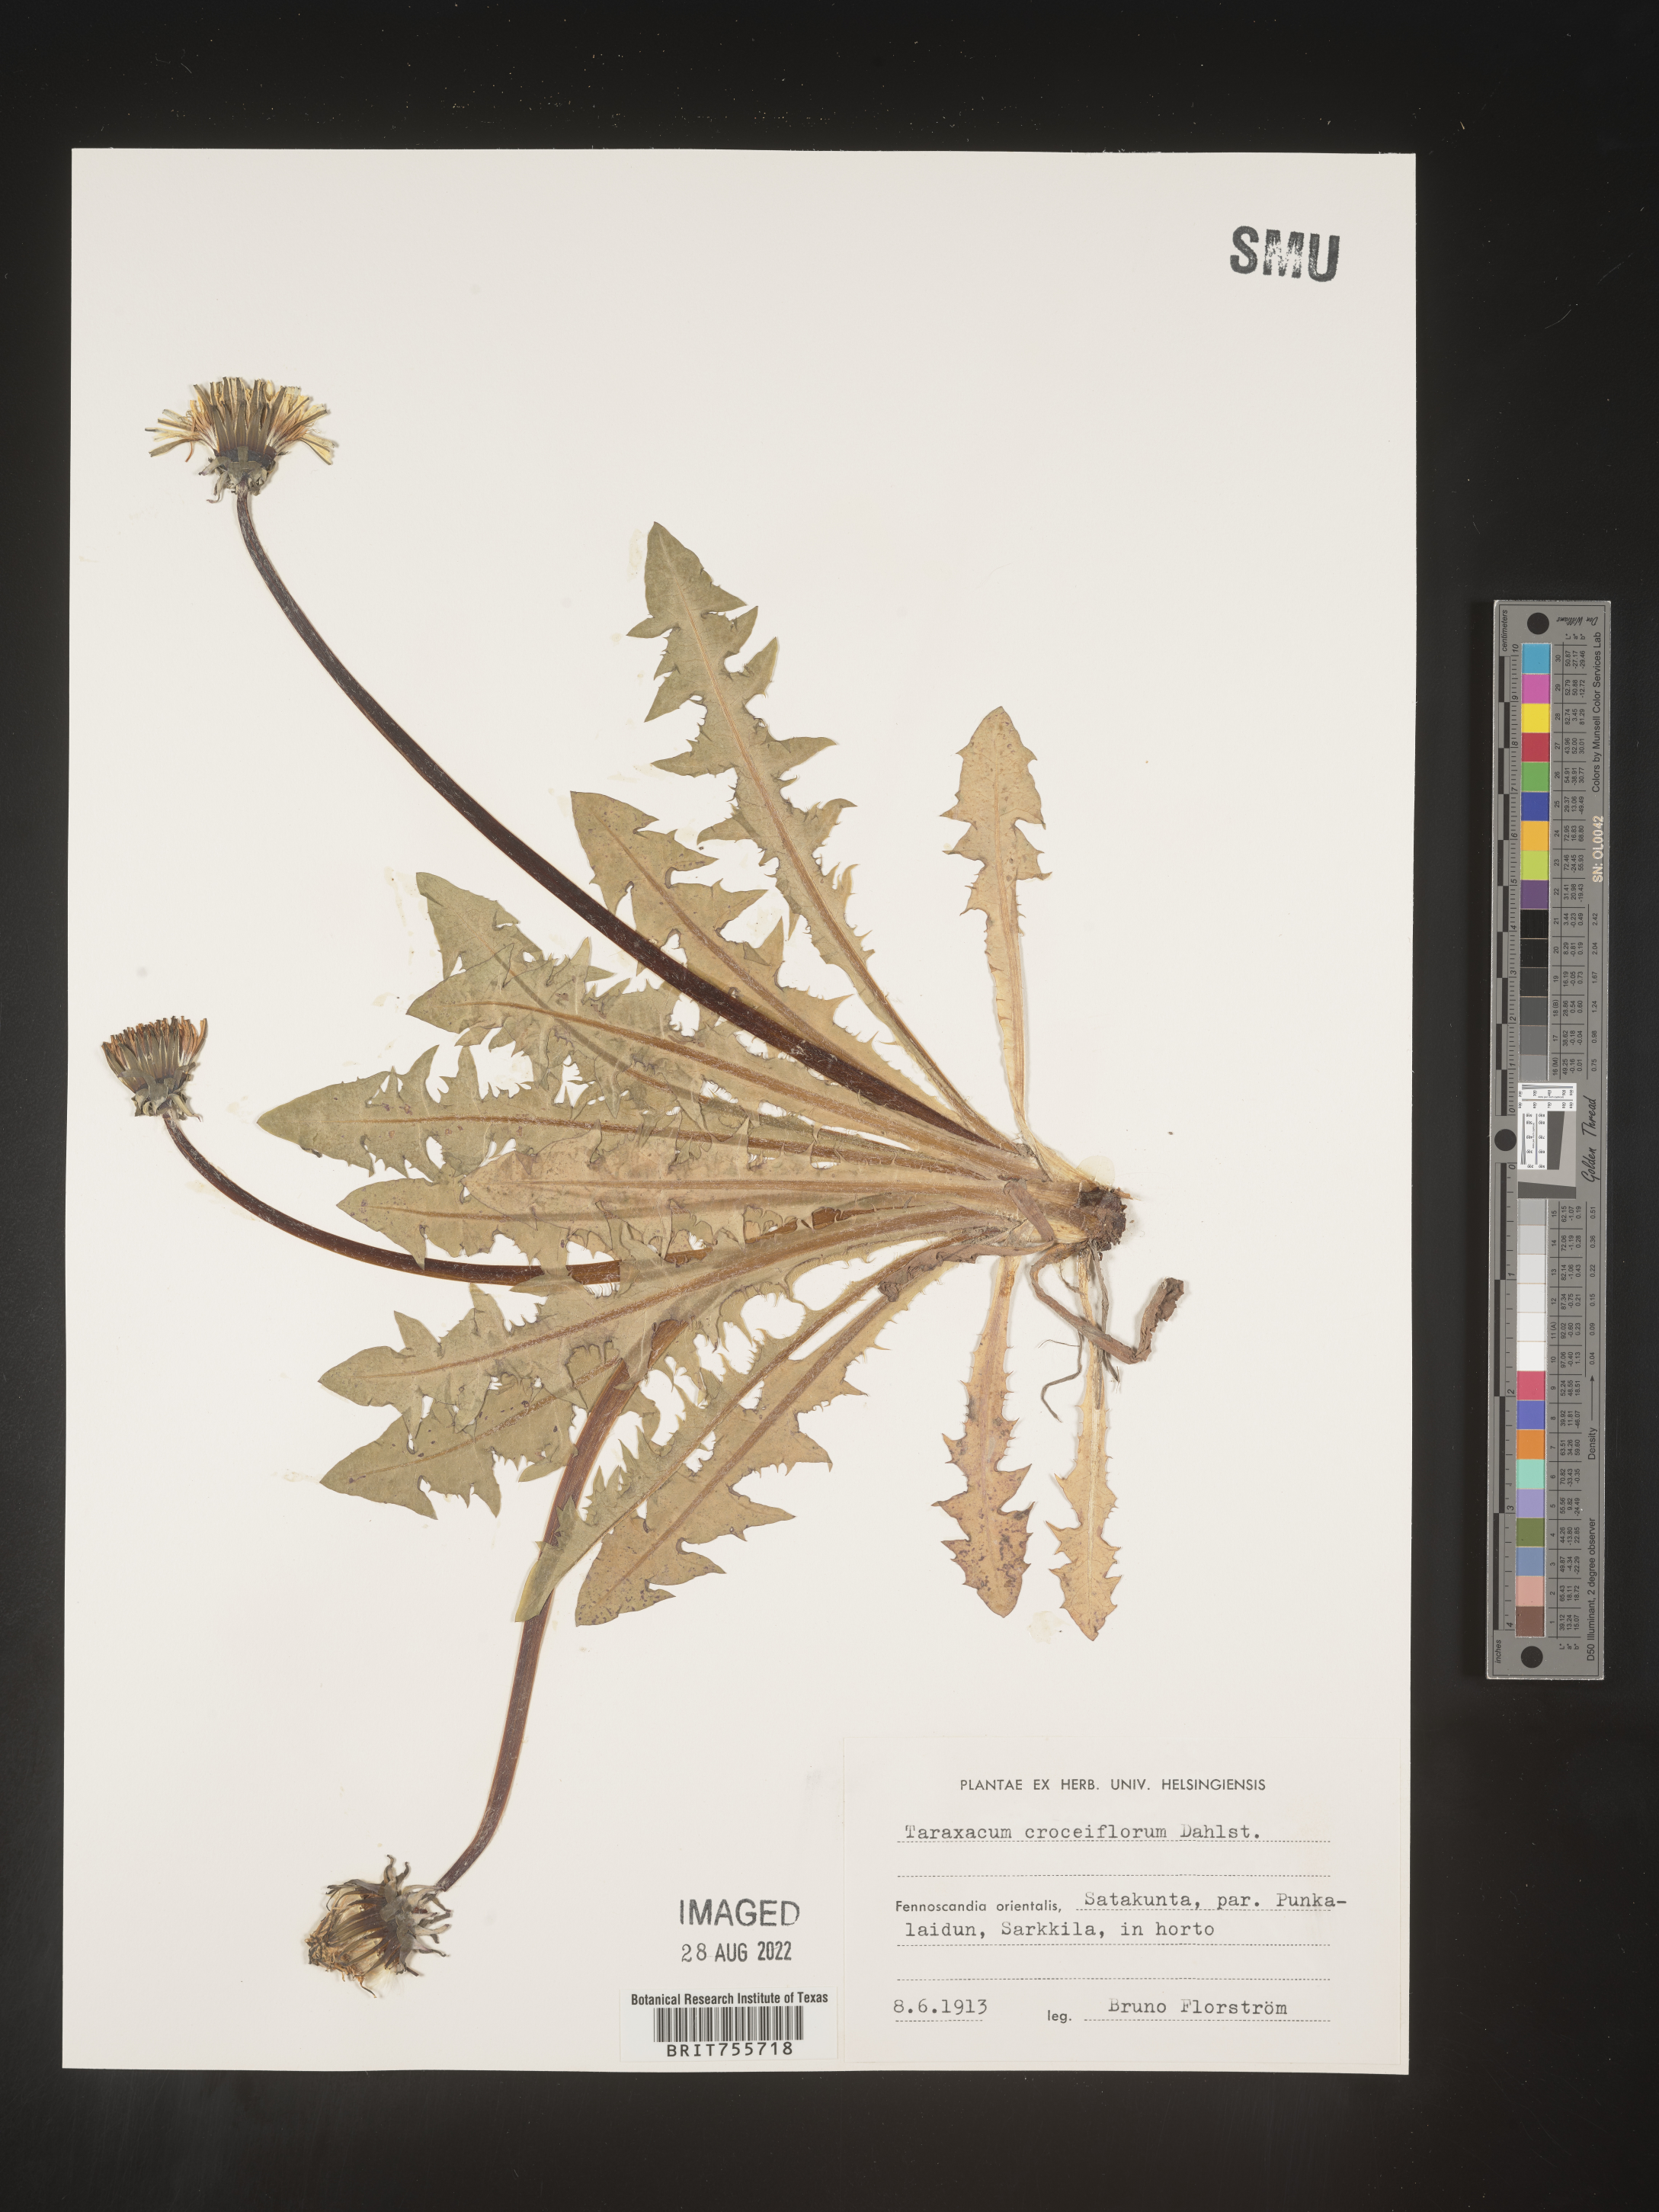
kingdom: Plantae
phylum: Tracheophyta
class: Magnoliopsida
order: Asterales
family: Asteraceae
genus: Taraxacum
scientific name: Taraxacum
